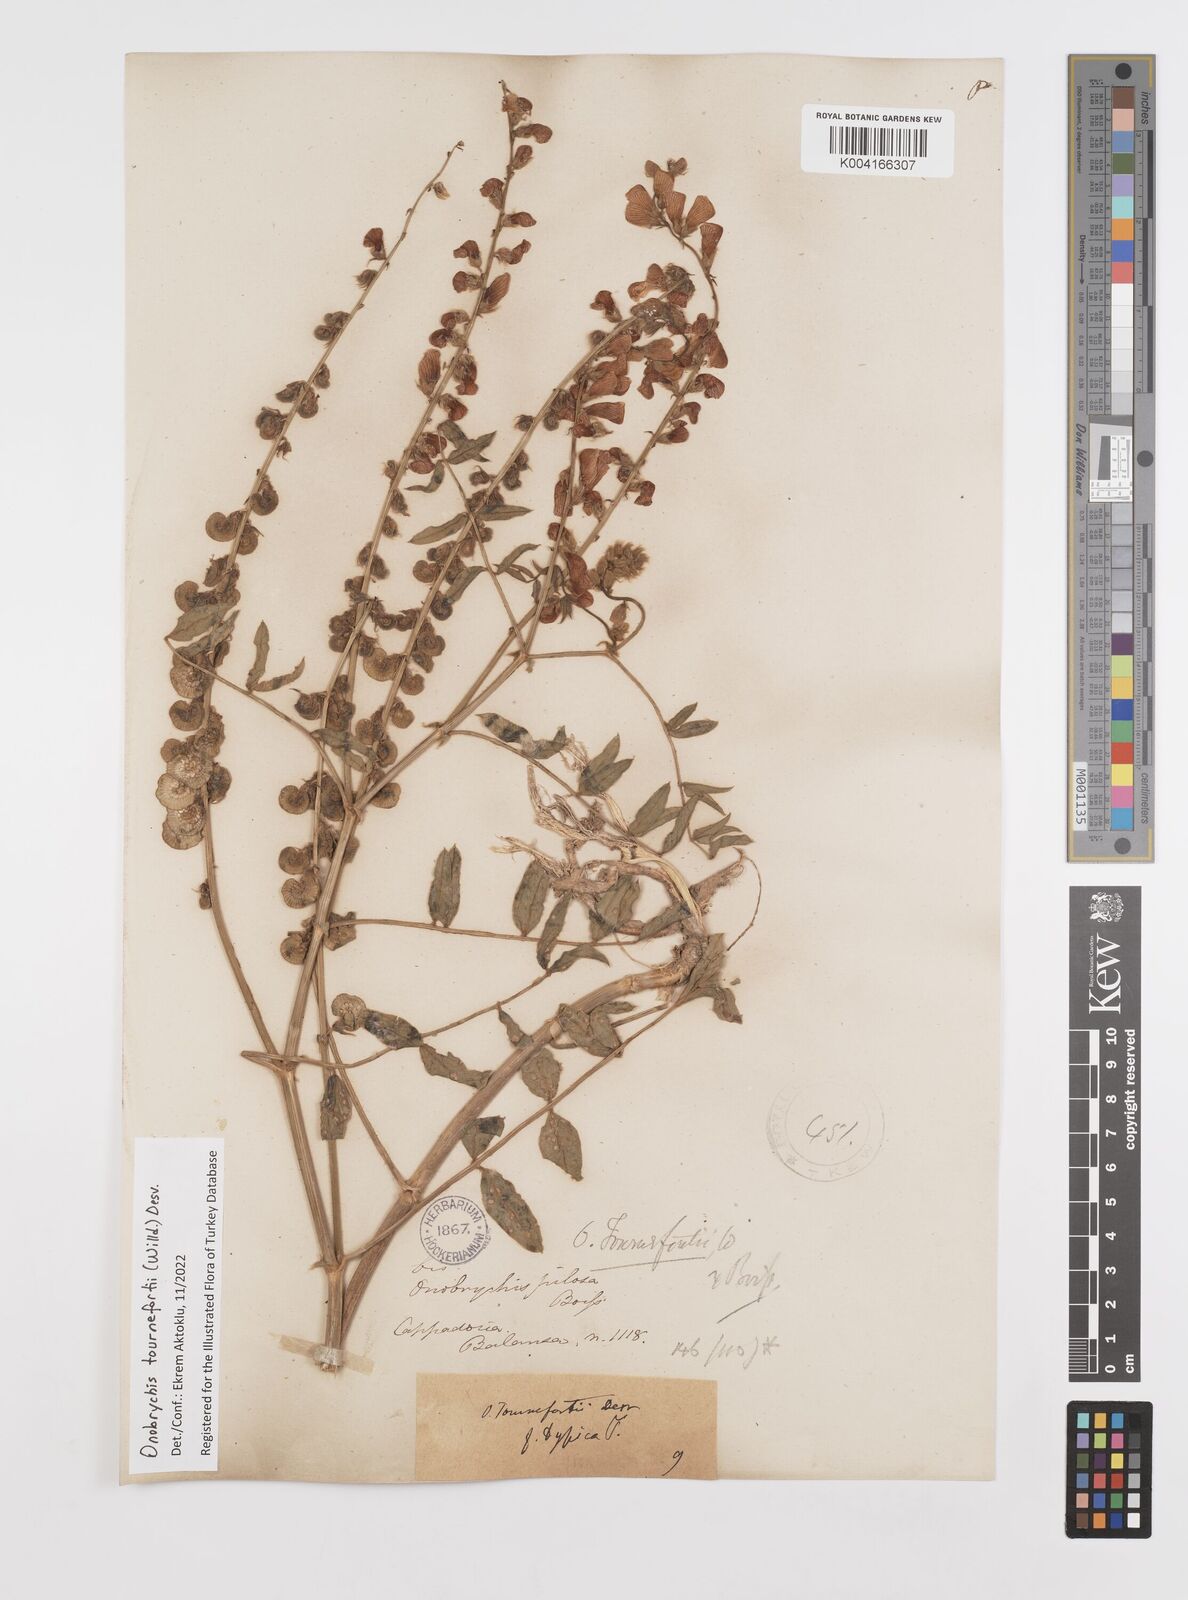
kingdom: Plantae
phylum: Tracheophyta
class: Magnoliopsida
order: Fabales
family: Fabaceae
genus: Onobrychis
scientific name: Onobrychis tournefortii
